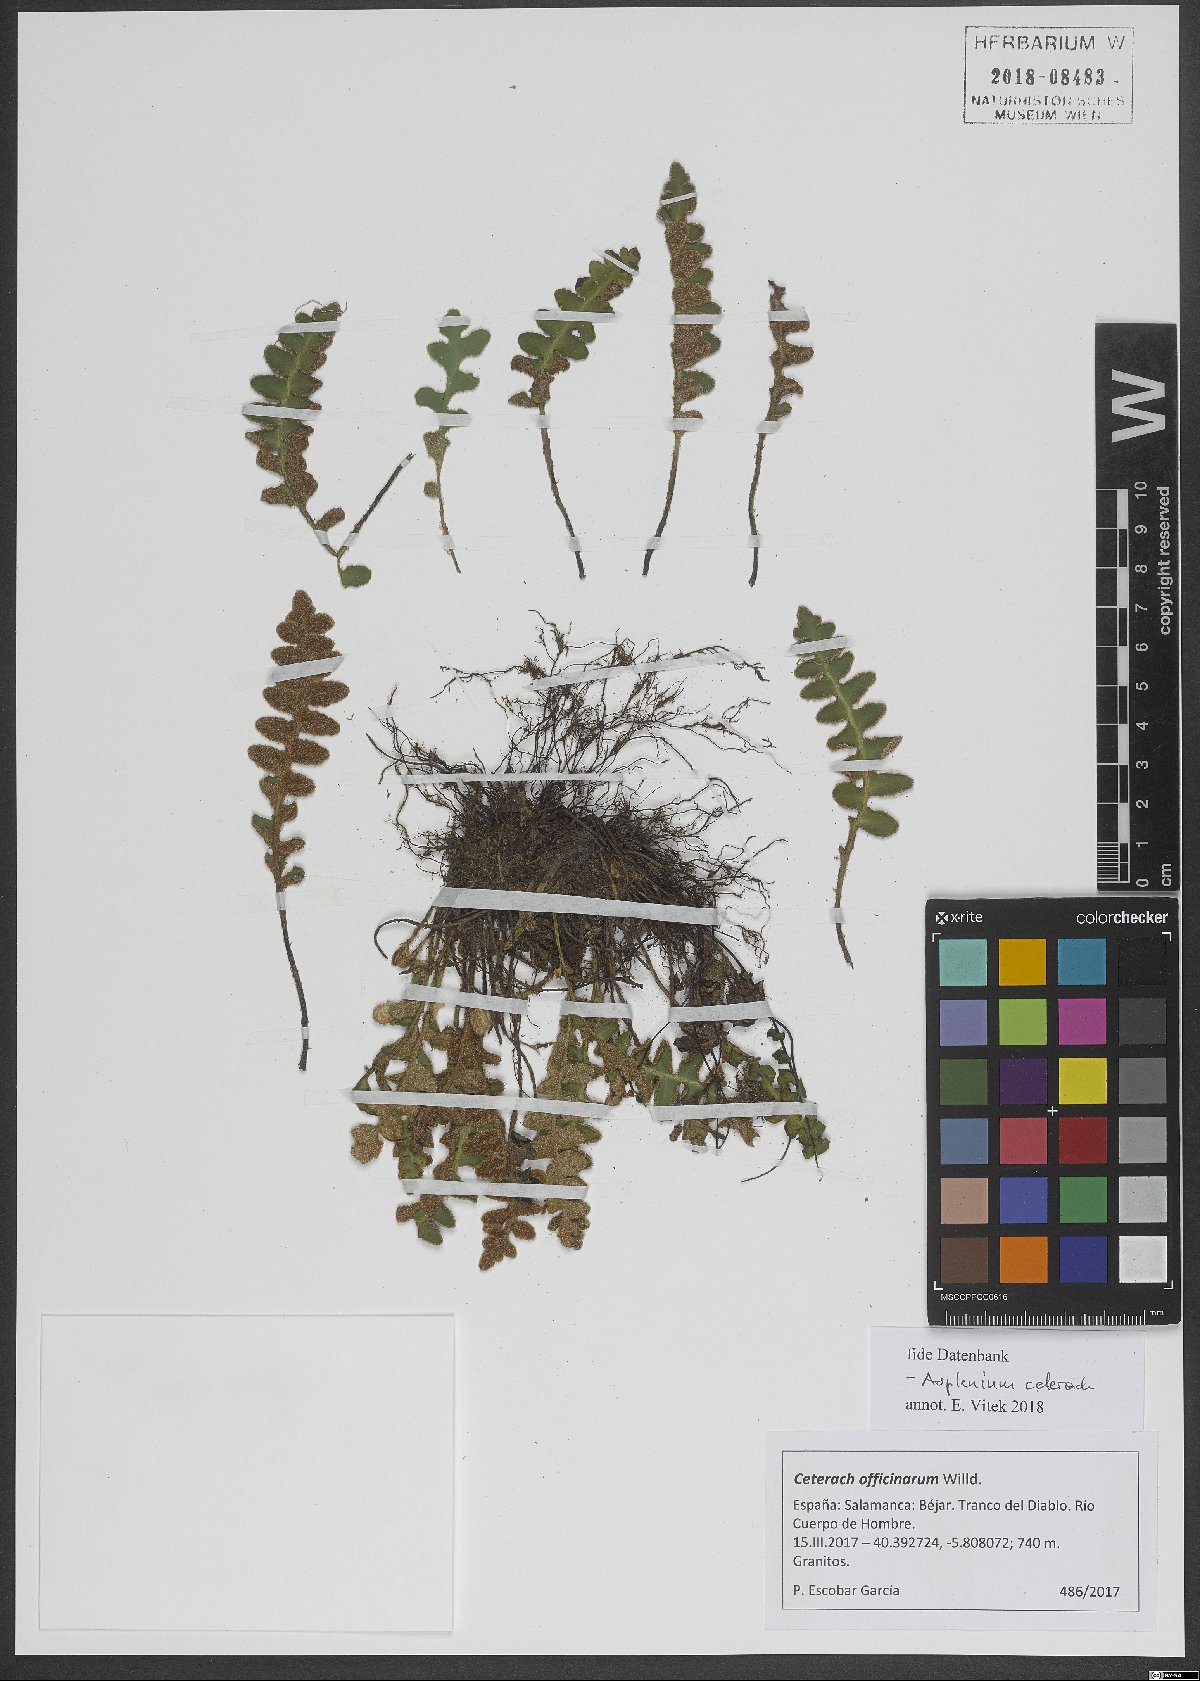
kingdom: Plantae
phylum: Tracheophyta
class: Polypodiopsida
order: Polypodiales
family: Aspleniaceae
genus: Asplenium
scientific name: Asplenium ceterach
